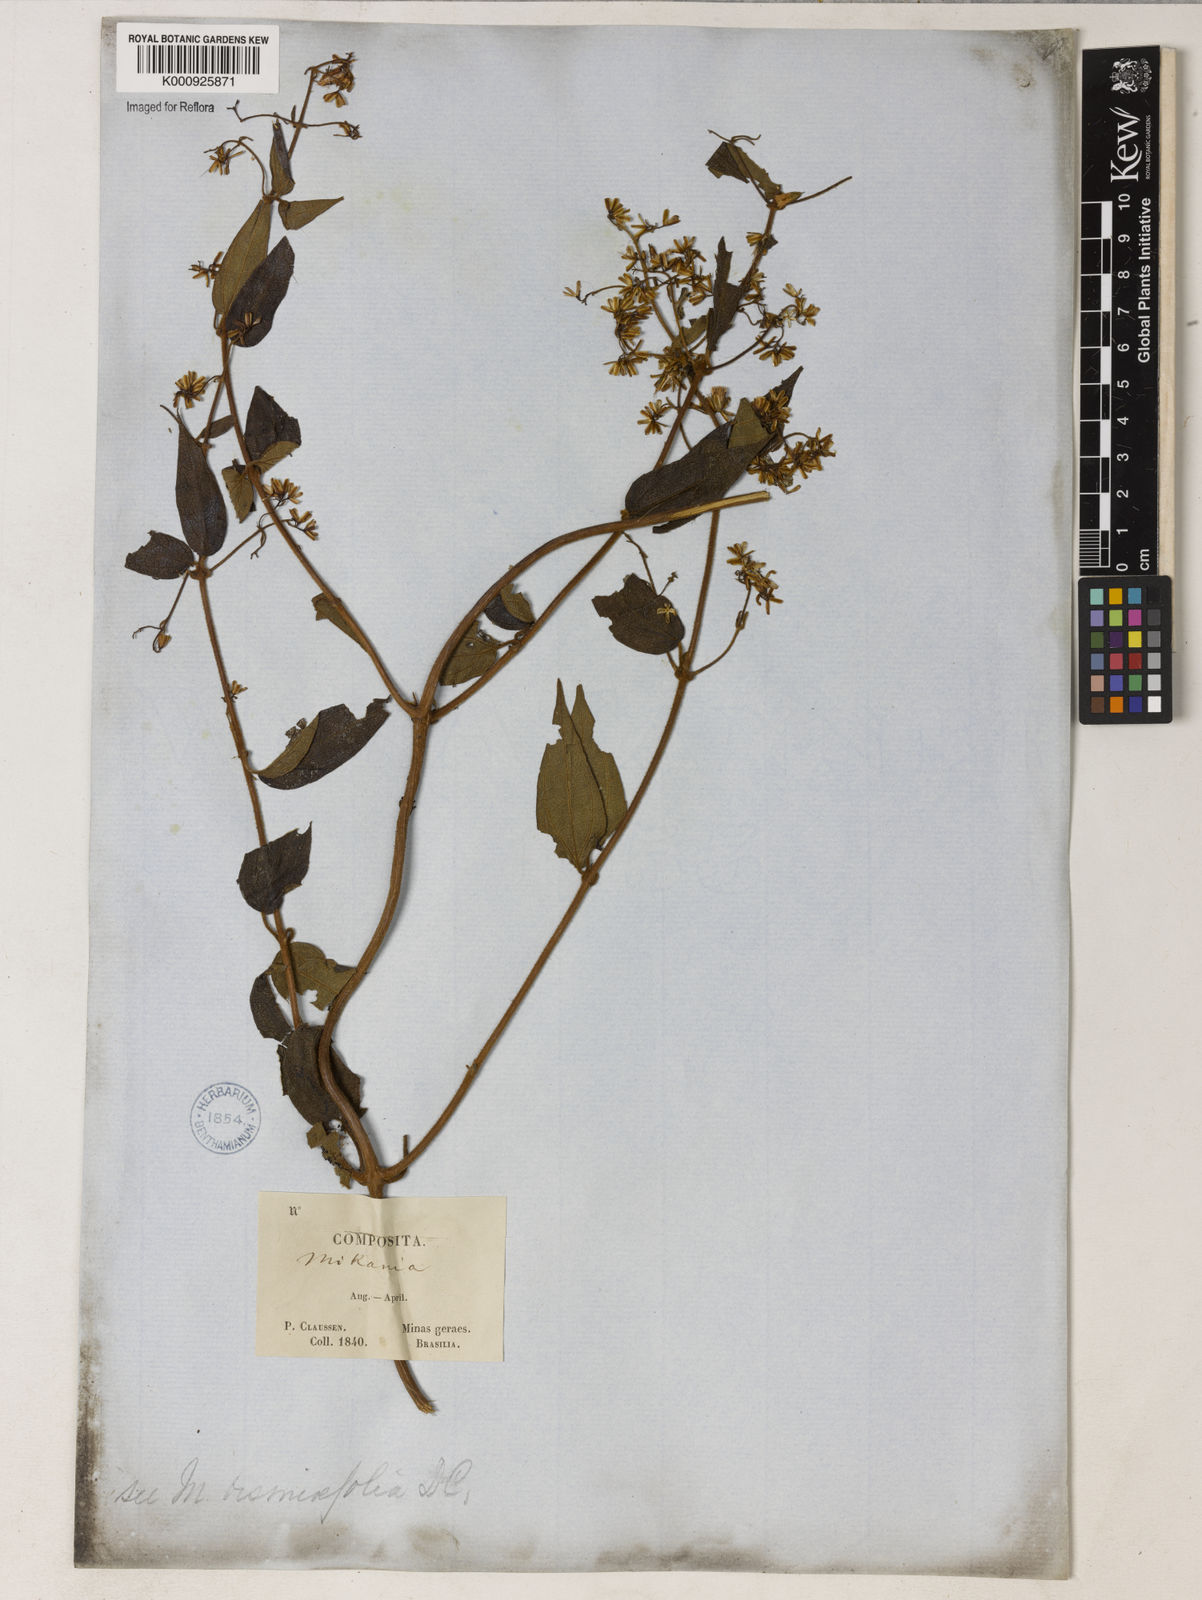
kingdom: Plantae
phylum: Tracheophyta
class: Magnoliopsida
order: Asterales
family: Asteraceae
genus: Mikania
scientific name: Mikania microdonta
